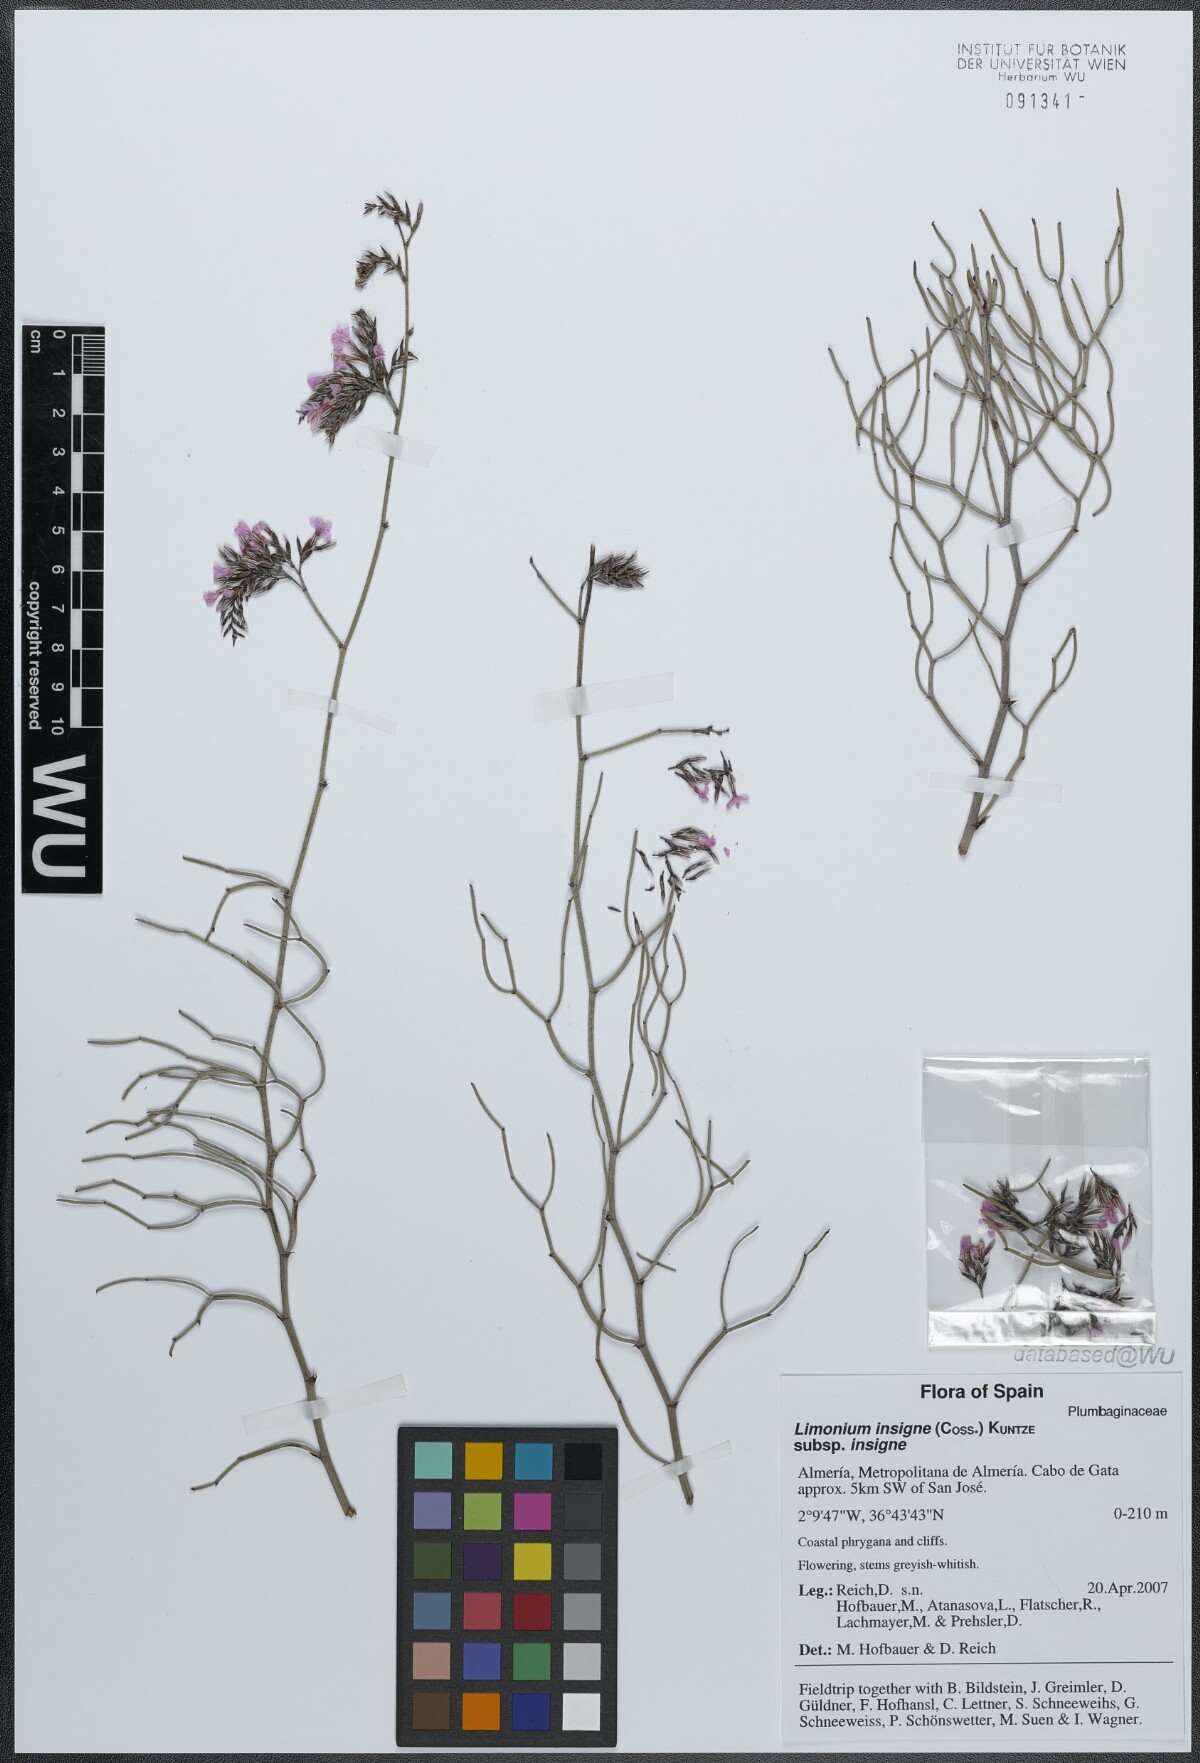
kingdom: Plantae
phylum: Tracheophyta
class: Magnoliopsida
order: Caryophyllales
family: Plumbaginaceae
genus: Limonium
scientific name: Limonium insigne
